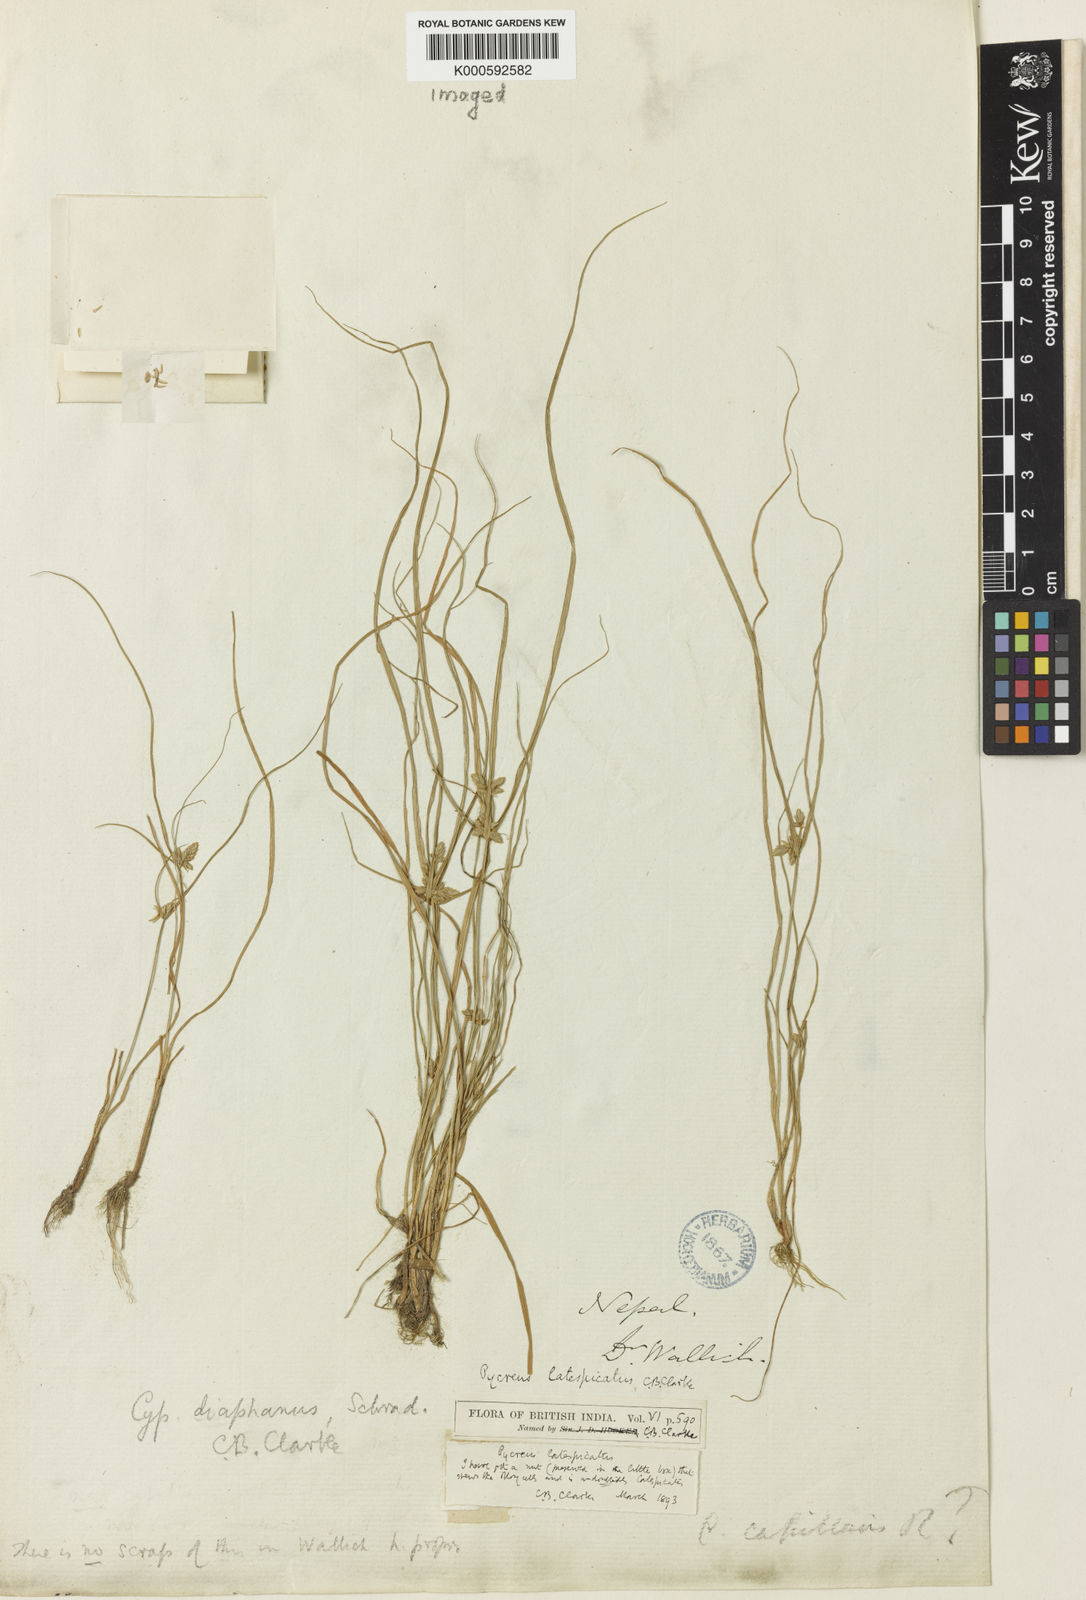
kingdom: Plantae
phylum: Tracheophyta
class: Liliopsida
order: Poales
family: Cyperaceae
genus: Cyperus
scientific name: Cyperus diaphanus
